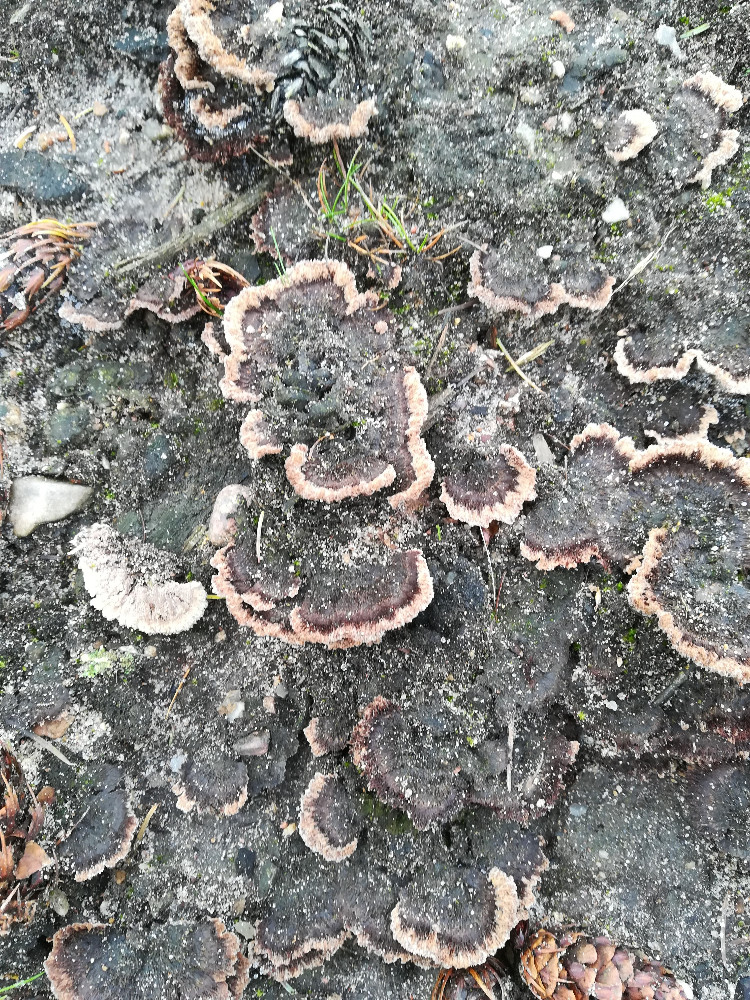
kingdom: Fungi
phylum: Basidiomycota
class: Agaricomycetes
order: Thelephorales
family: Thelephoraceae
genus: Thelephora
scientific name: Thelephora terrestris
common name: fliget frynsesvamp
